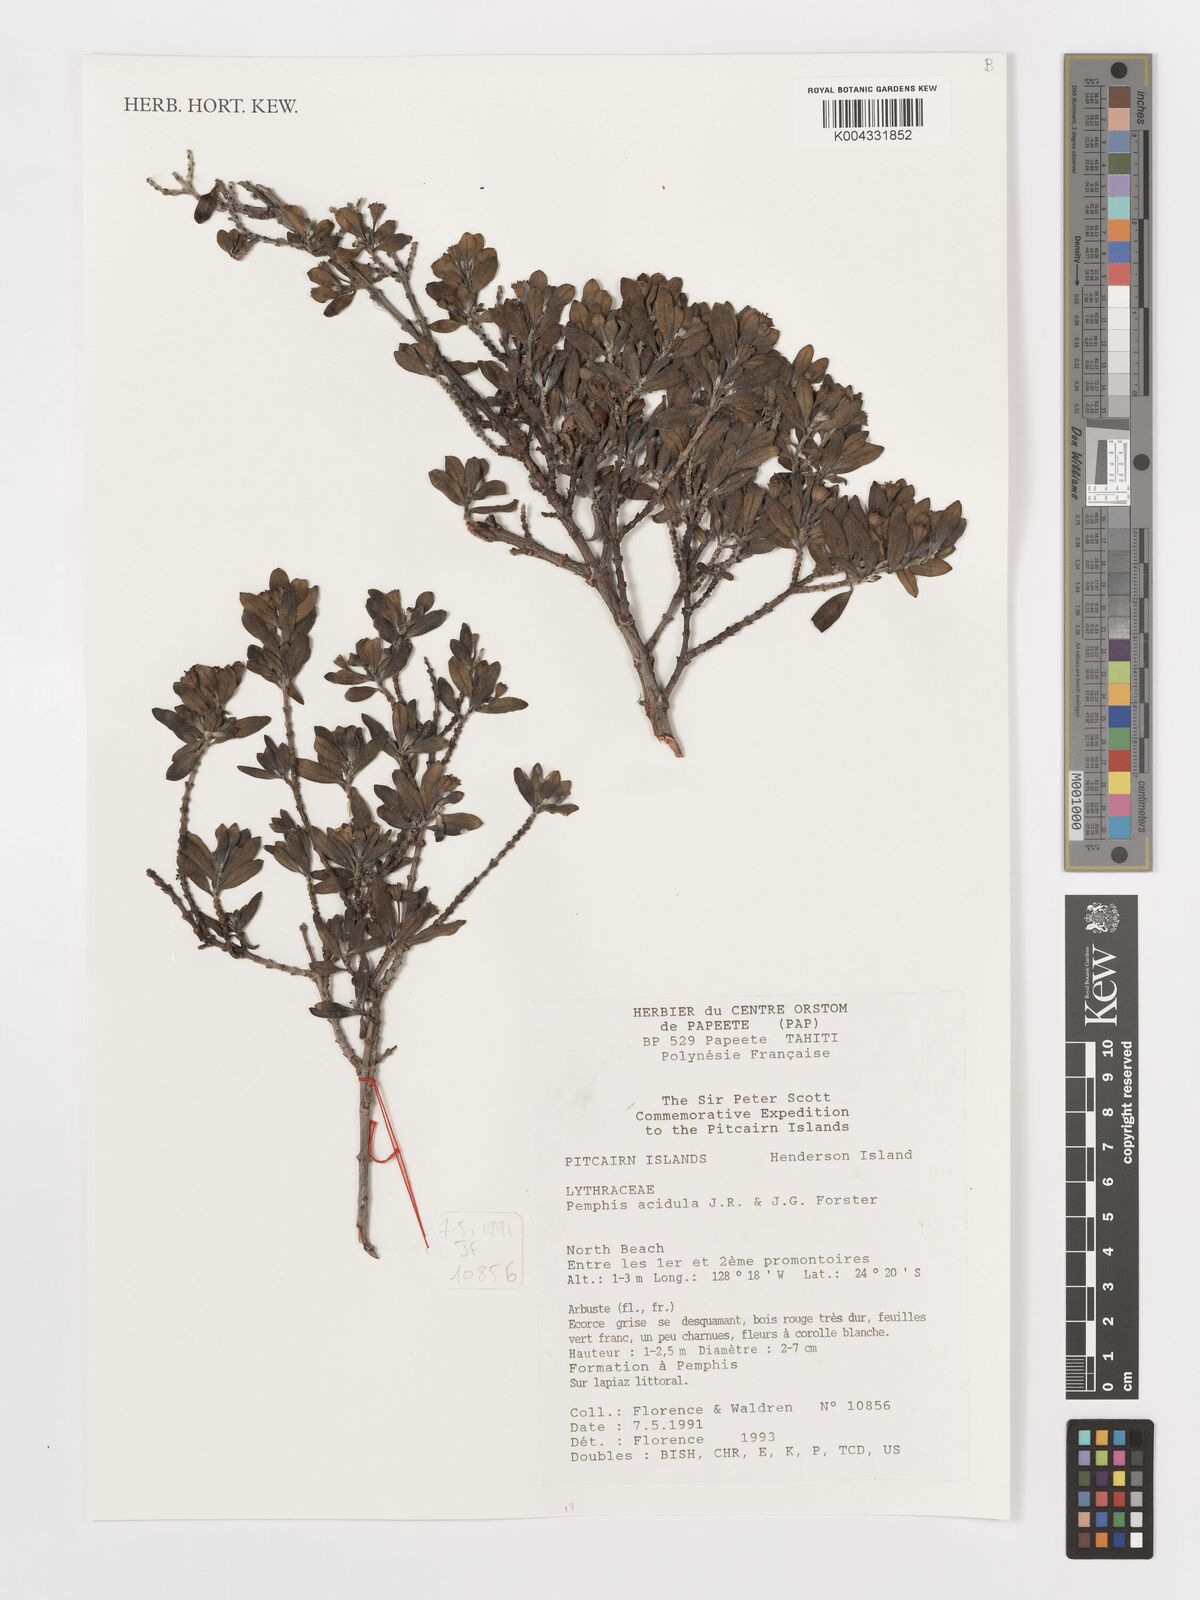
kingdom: Plantae
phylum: Tracheophyta
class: Magnoliopsida
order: Myrtales
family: Lythraceae
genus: Pemphis
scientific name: Pemphis acidula
